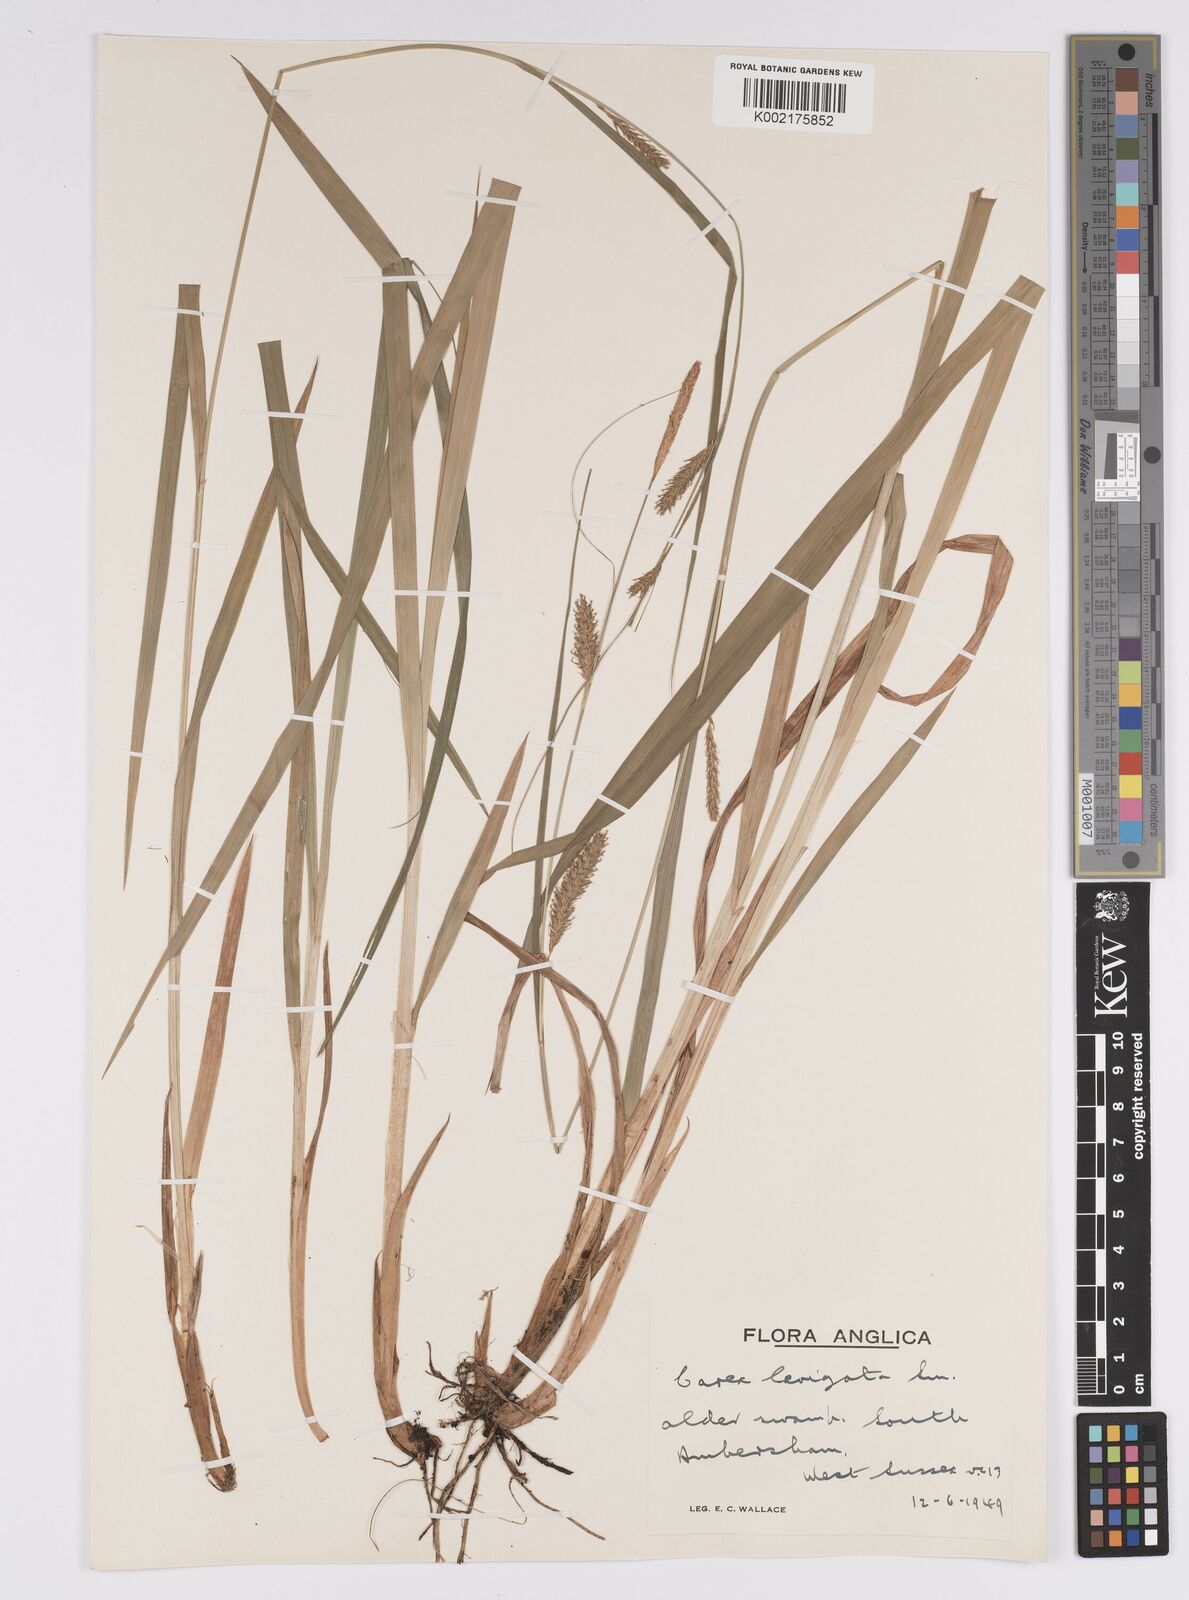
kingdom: Plantae
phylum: Tracheophyta
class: Liliopsida
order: Poales
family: Cyperaceae
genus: Carex
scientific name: Carex laevigata
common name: Smooth-stalked sedge
